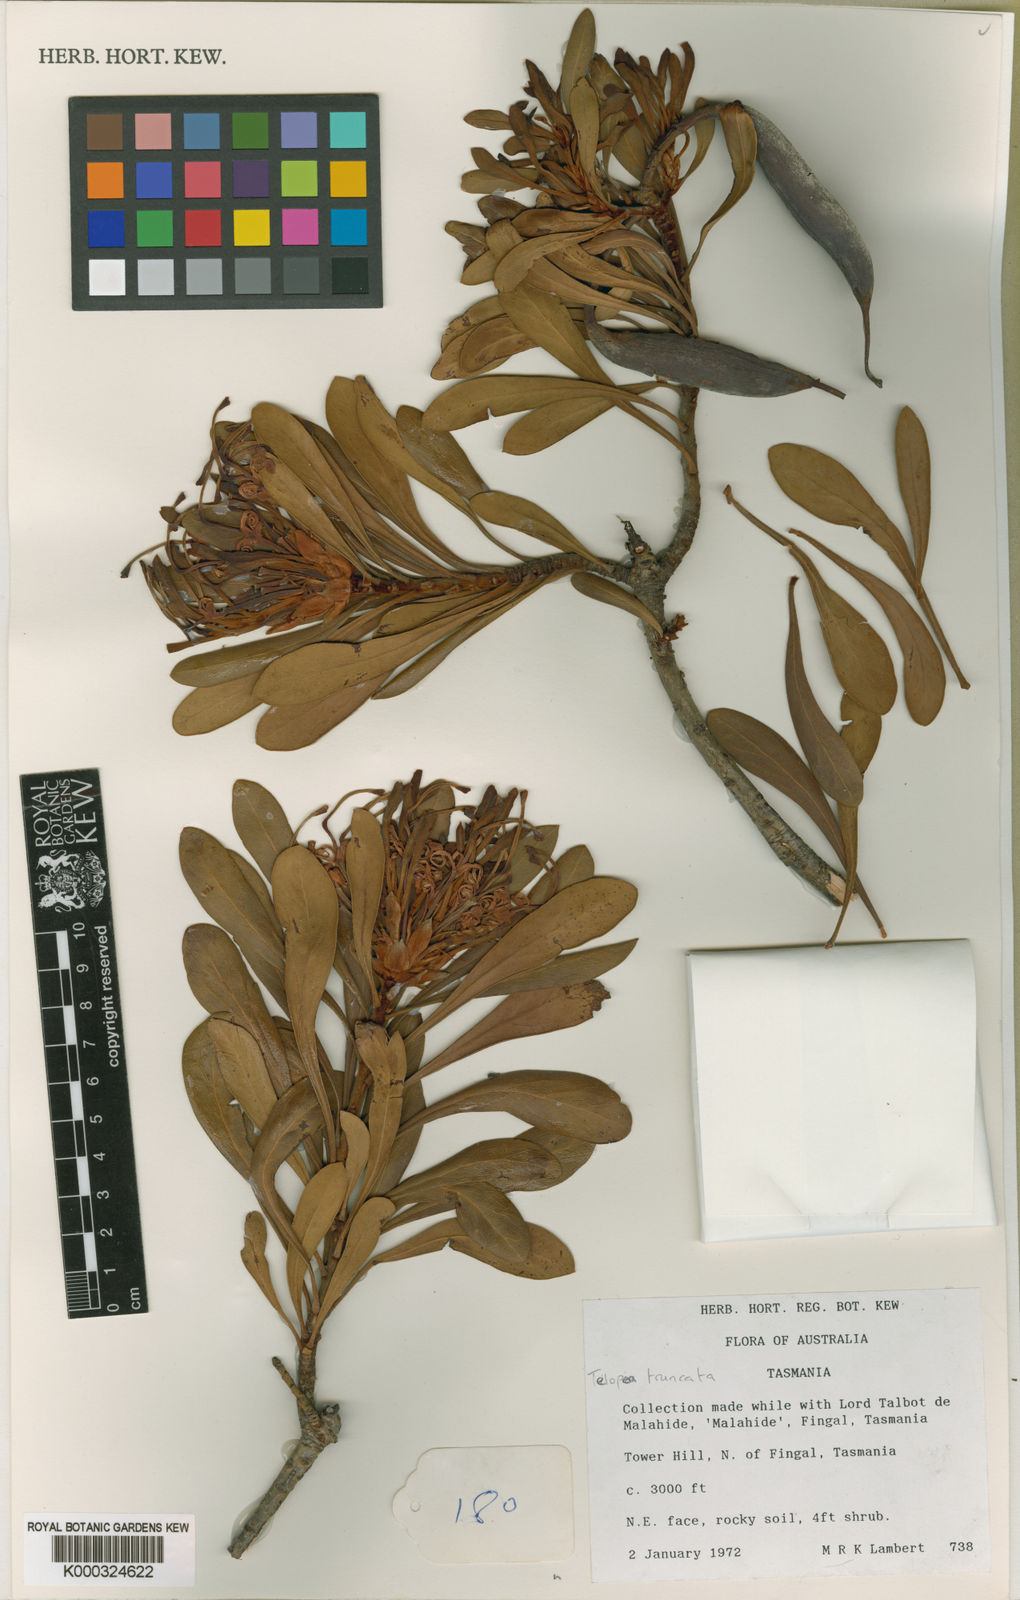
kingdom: Plantae
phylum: Tracheophyta
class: Magnoliopsida
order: Proteales
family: Proteaceae
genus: Telopea
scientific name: Telopea truncata
